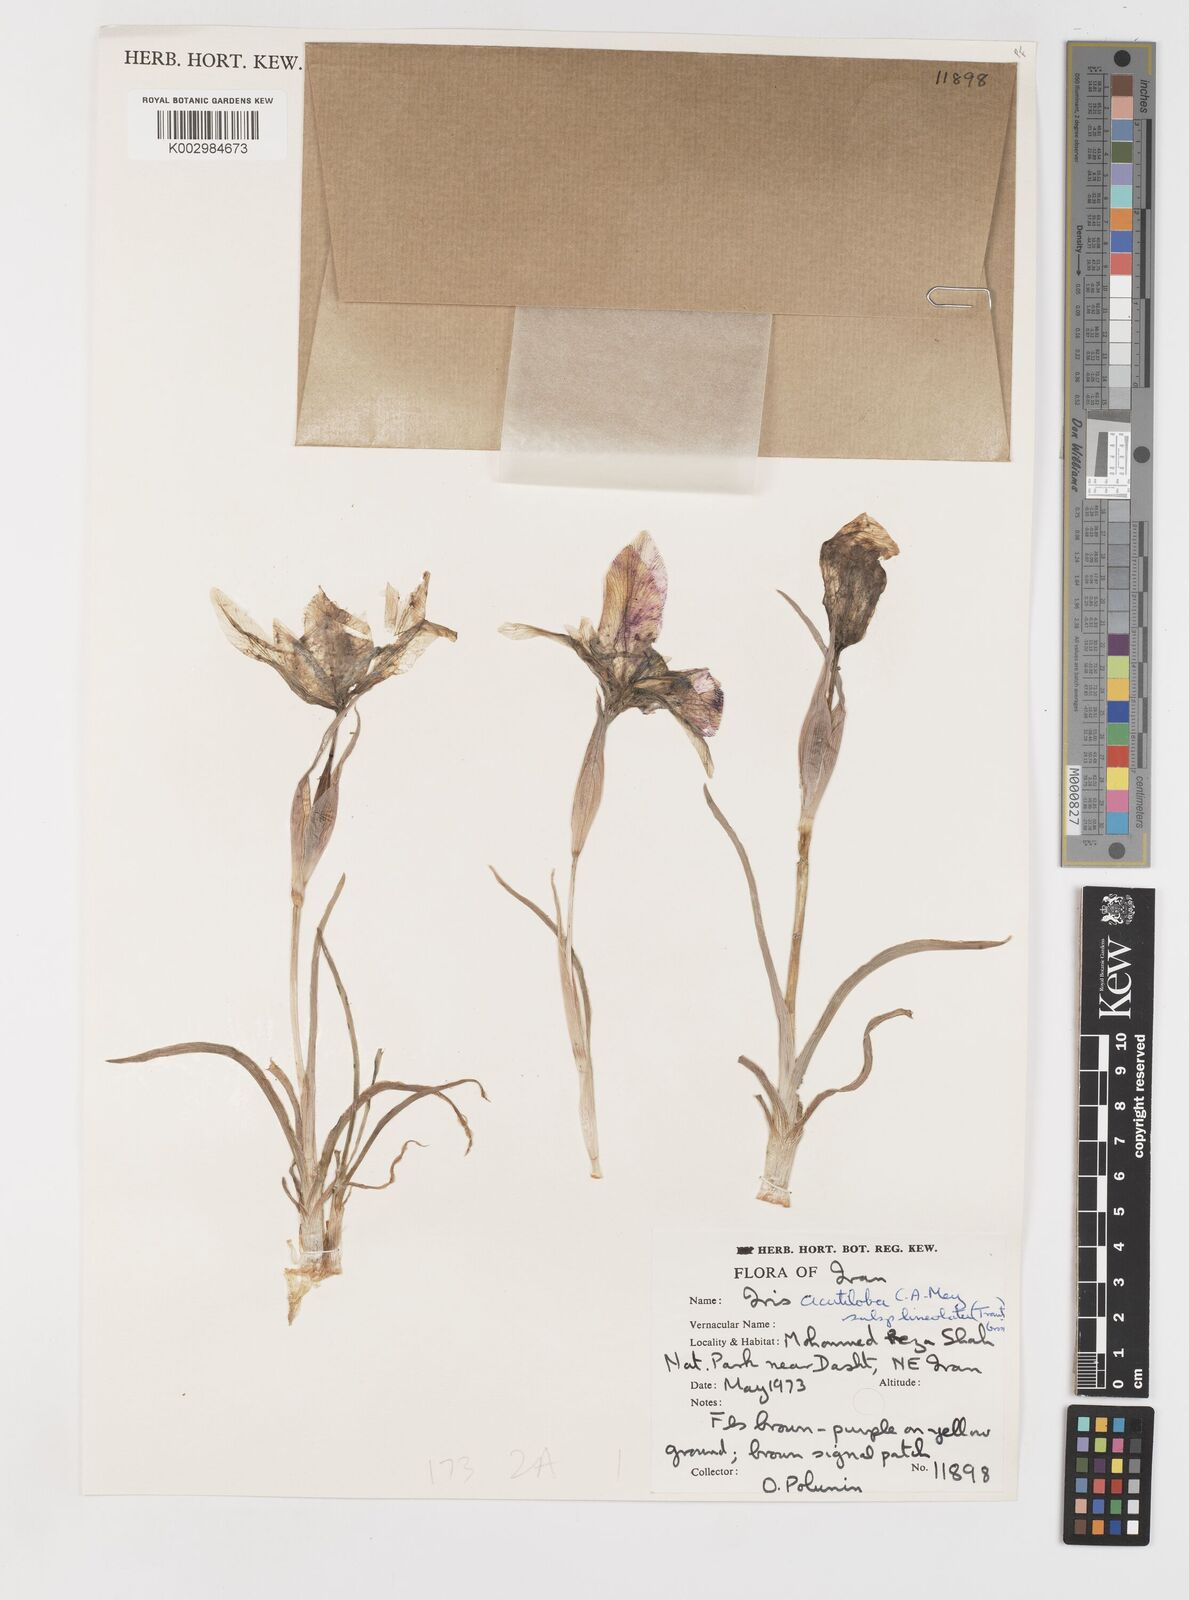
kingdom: Plantae
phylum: Tracheophyta
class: Liliopsida
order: Asparagales
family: Iridaceae
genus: Iris
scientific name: Iris acutiloba
